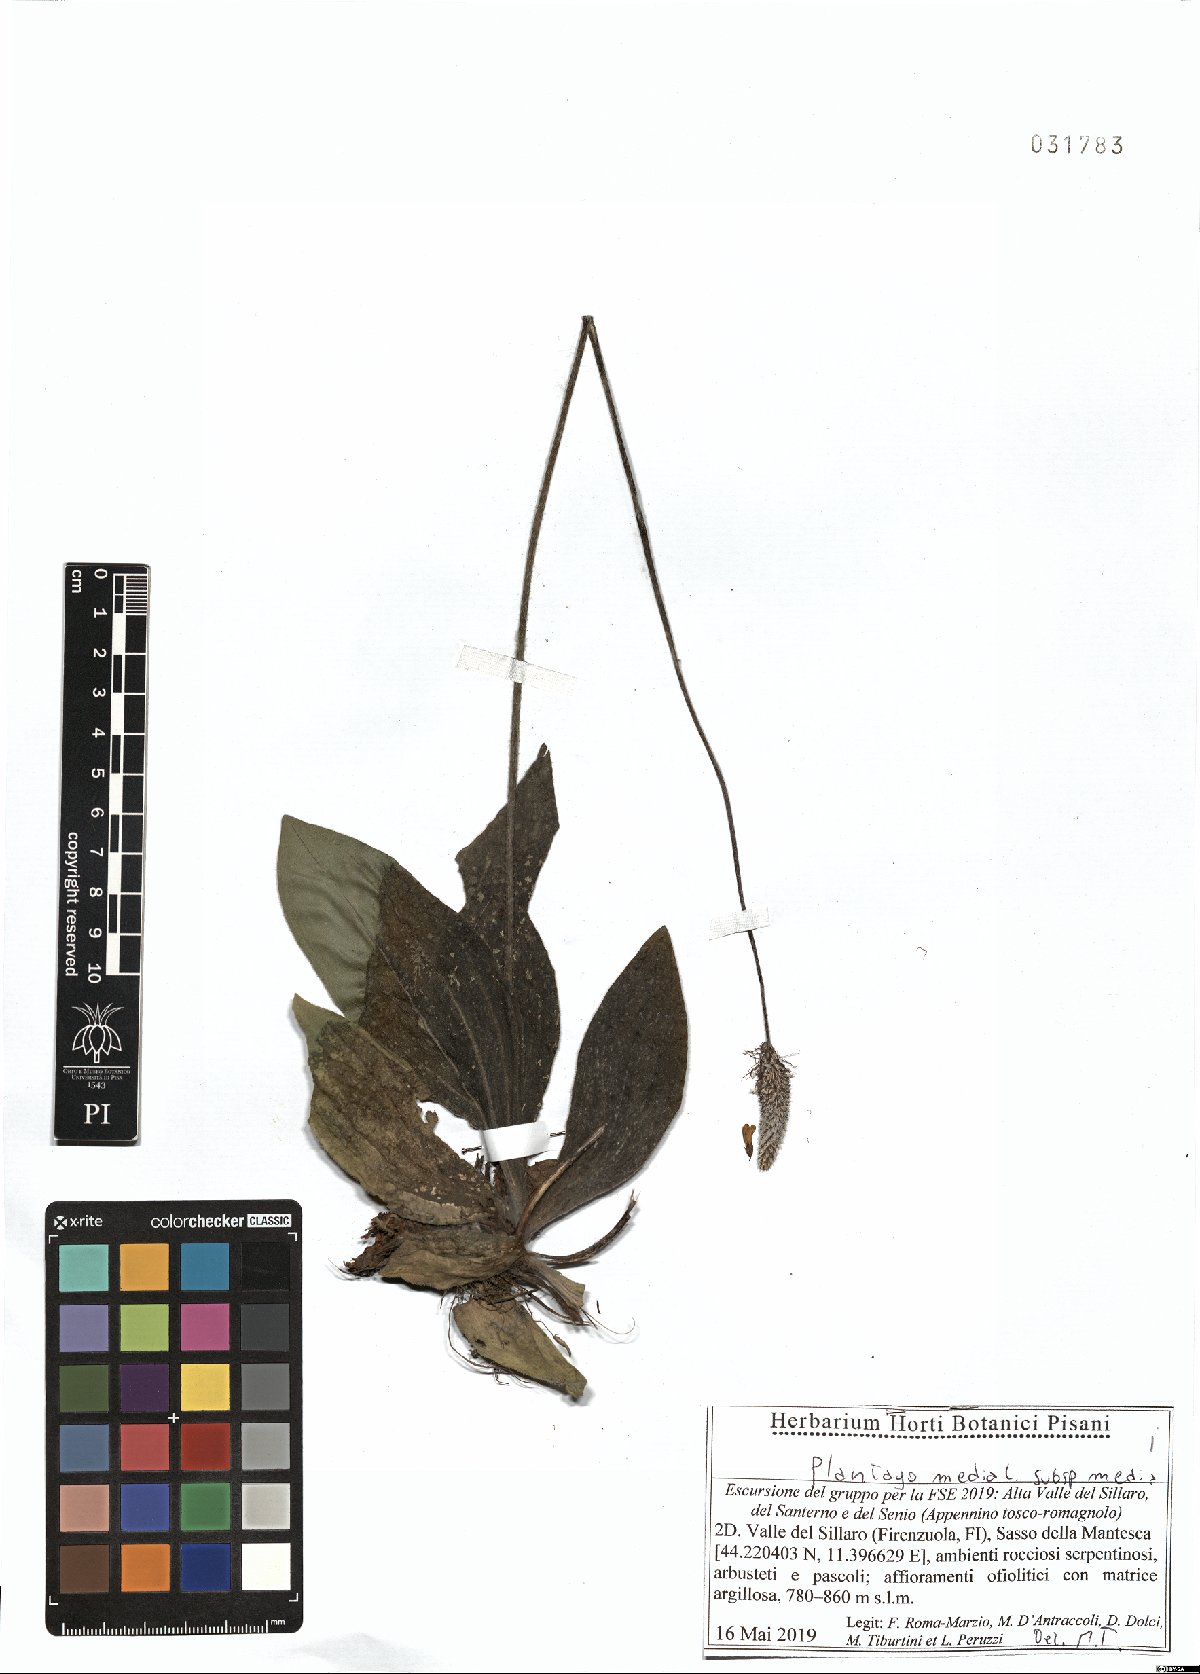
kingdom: Plantae
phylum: Tracheophyta
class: Magnoliopsida
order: Lamiales
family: Plantaginaceae
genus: Plantago
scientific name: Plantago media
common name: Hoary plantain
